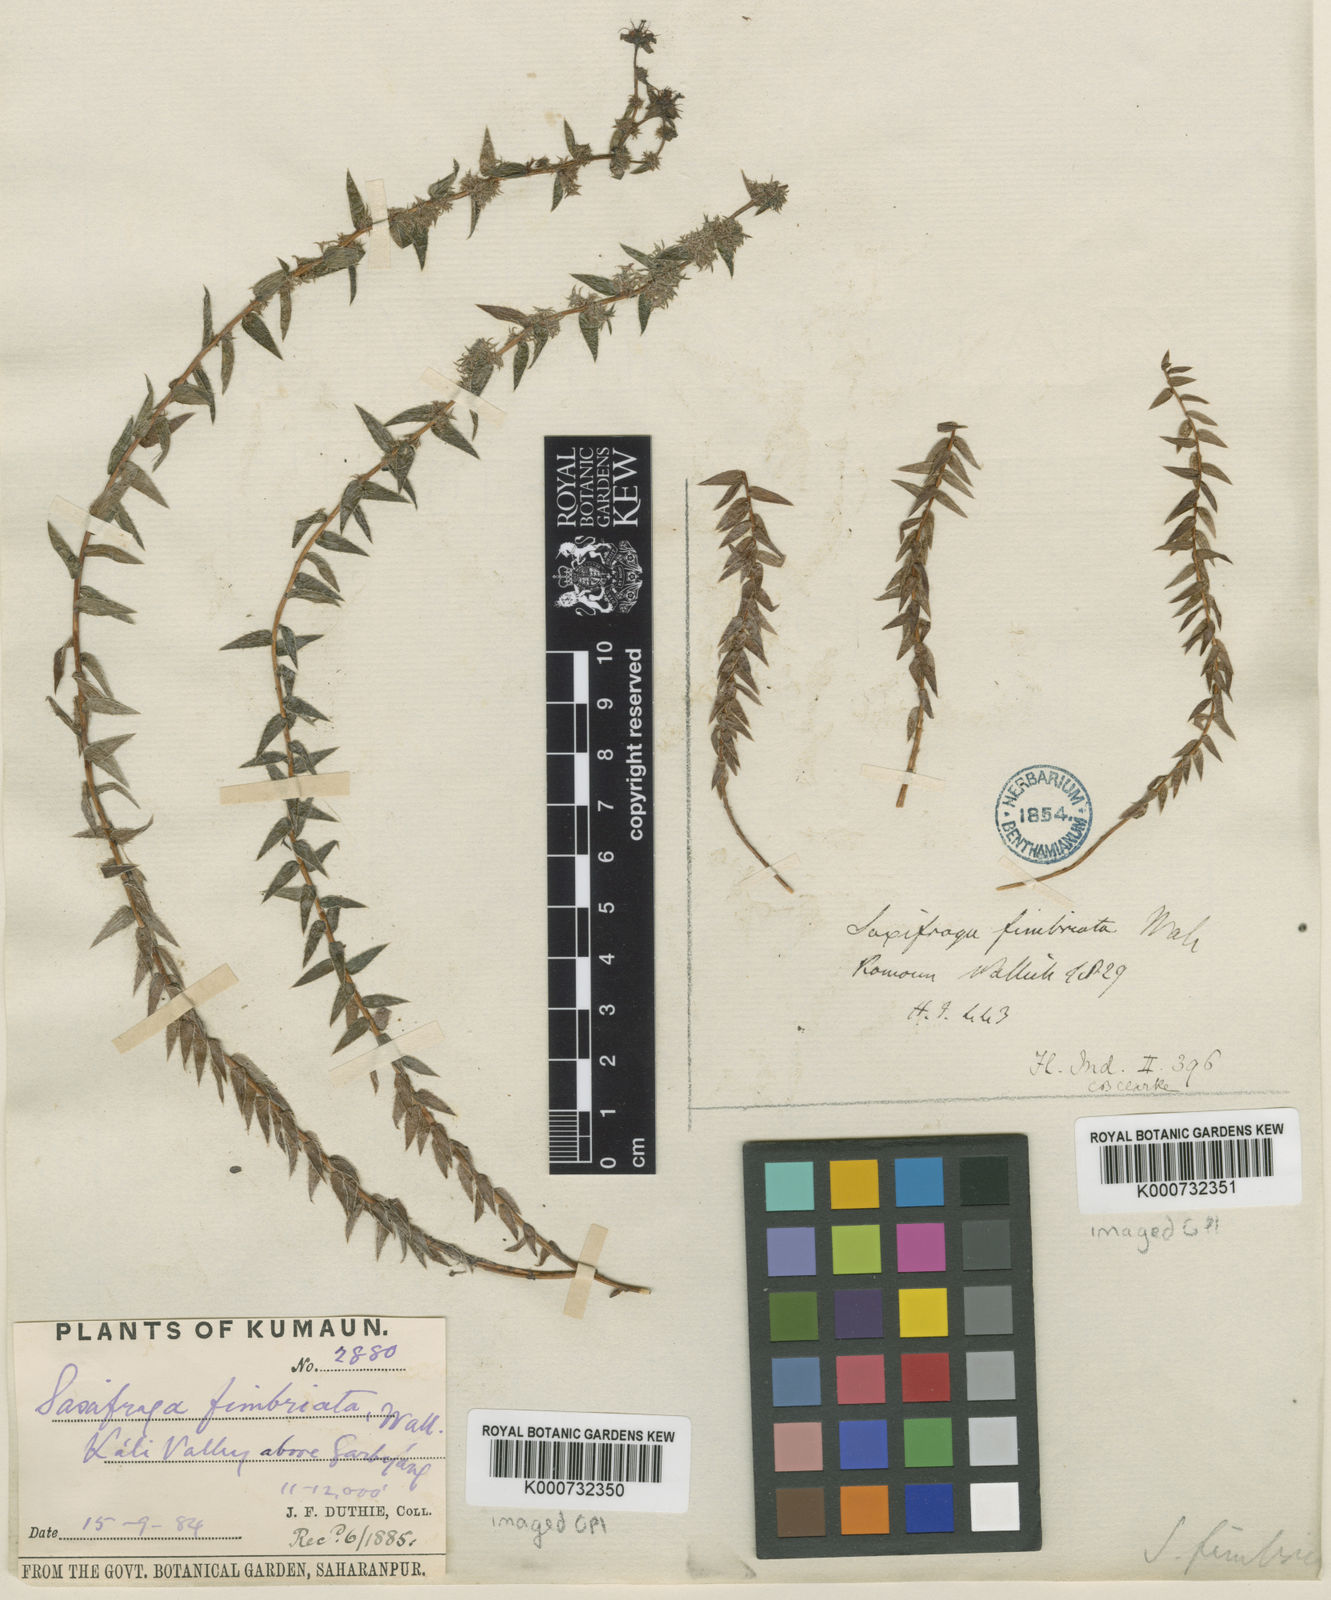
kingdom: Plantae
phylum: Tracheophyta
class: Magnoliopsida
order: Saxifragales
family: Saxifragaceae
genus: Saxifraga
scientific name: Saxifraga brachypoda
